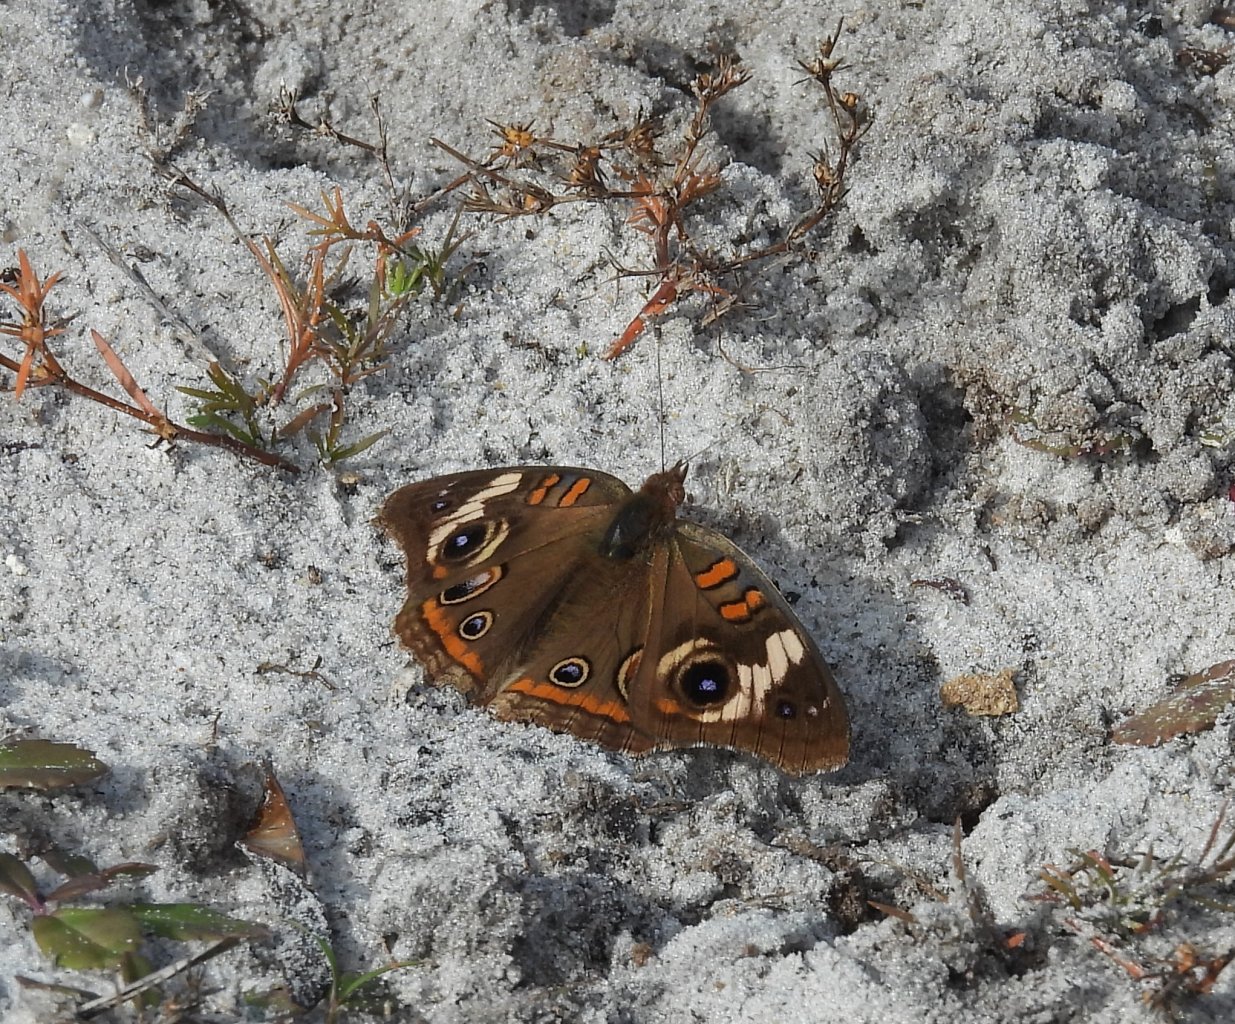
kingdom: Animalia
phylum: Arthropoda
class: Insecta
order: Lepidoptera
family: Nymphalidae
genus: Junonia
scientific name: Junonia lavinia
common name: Tropical Buckeye
